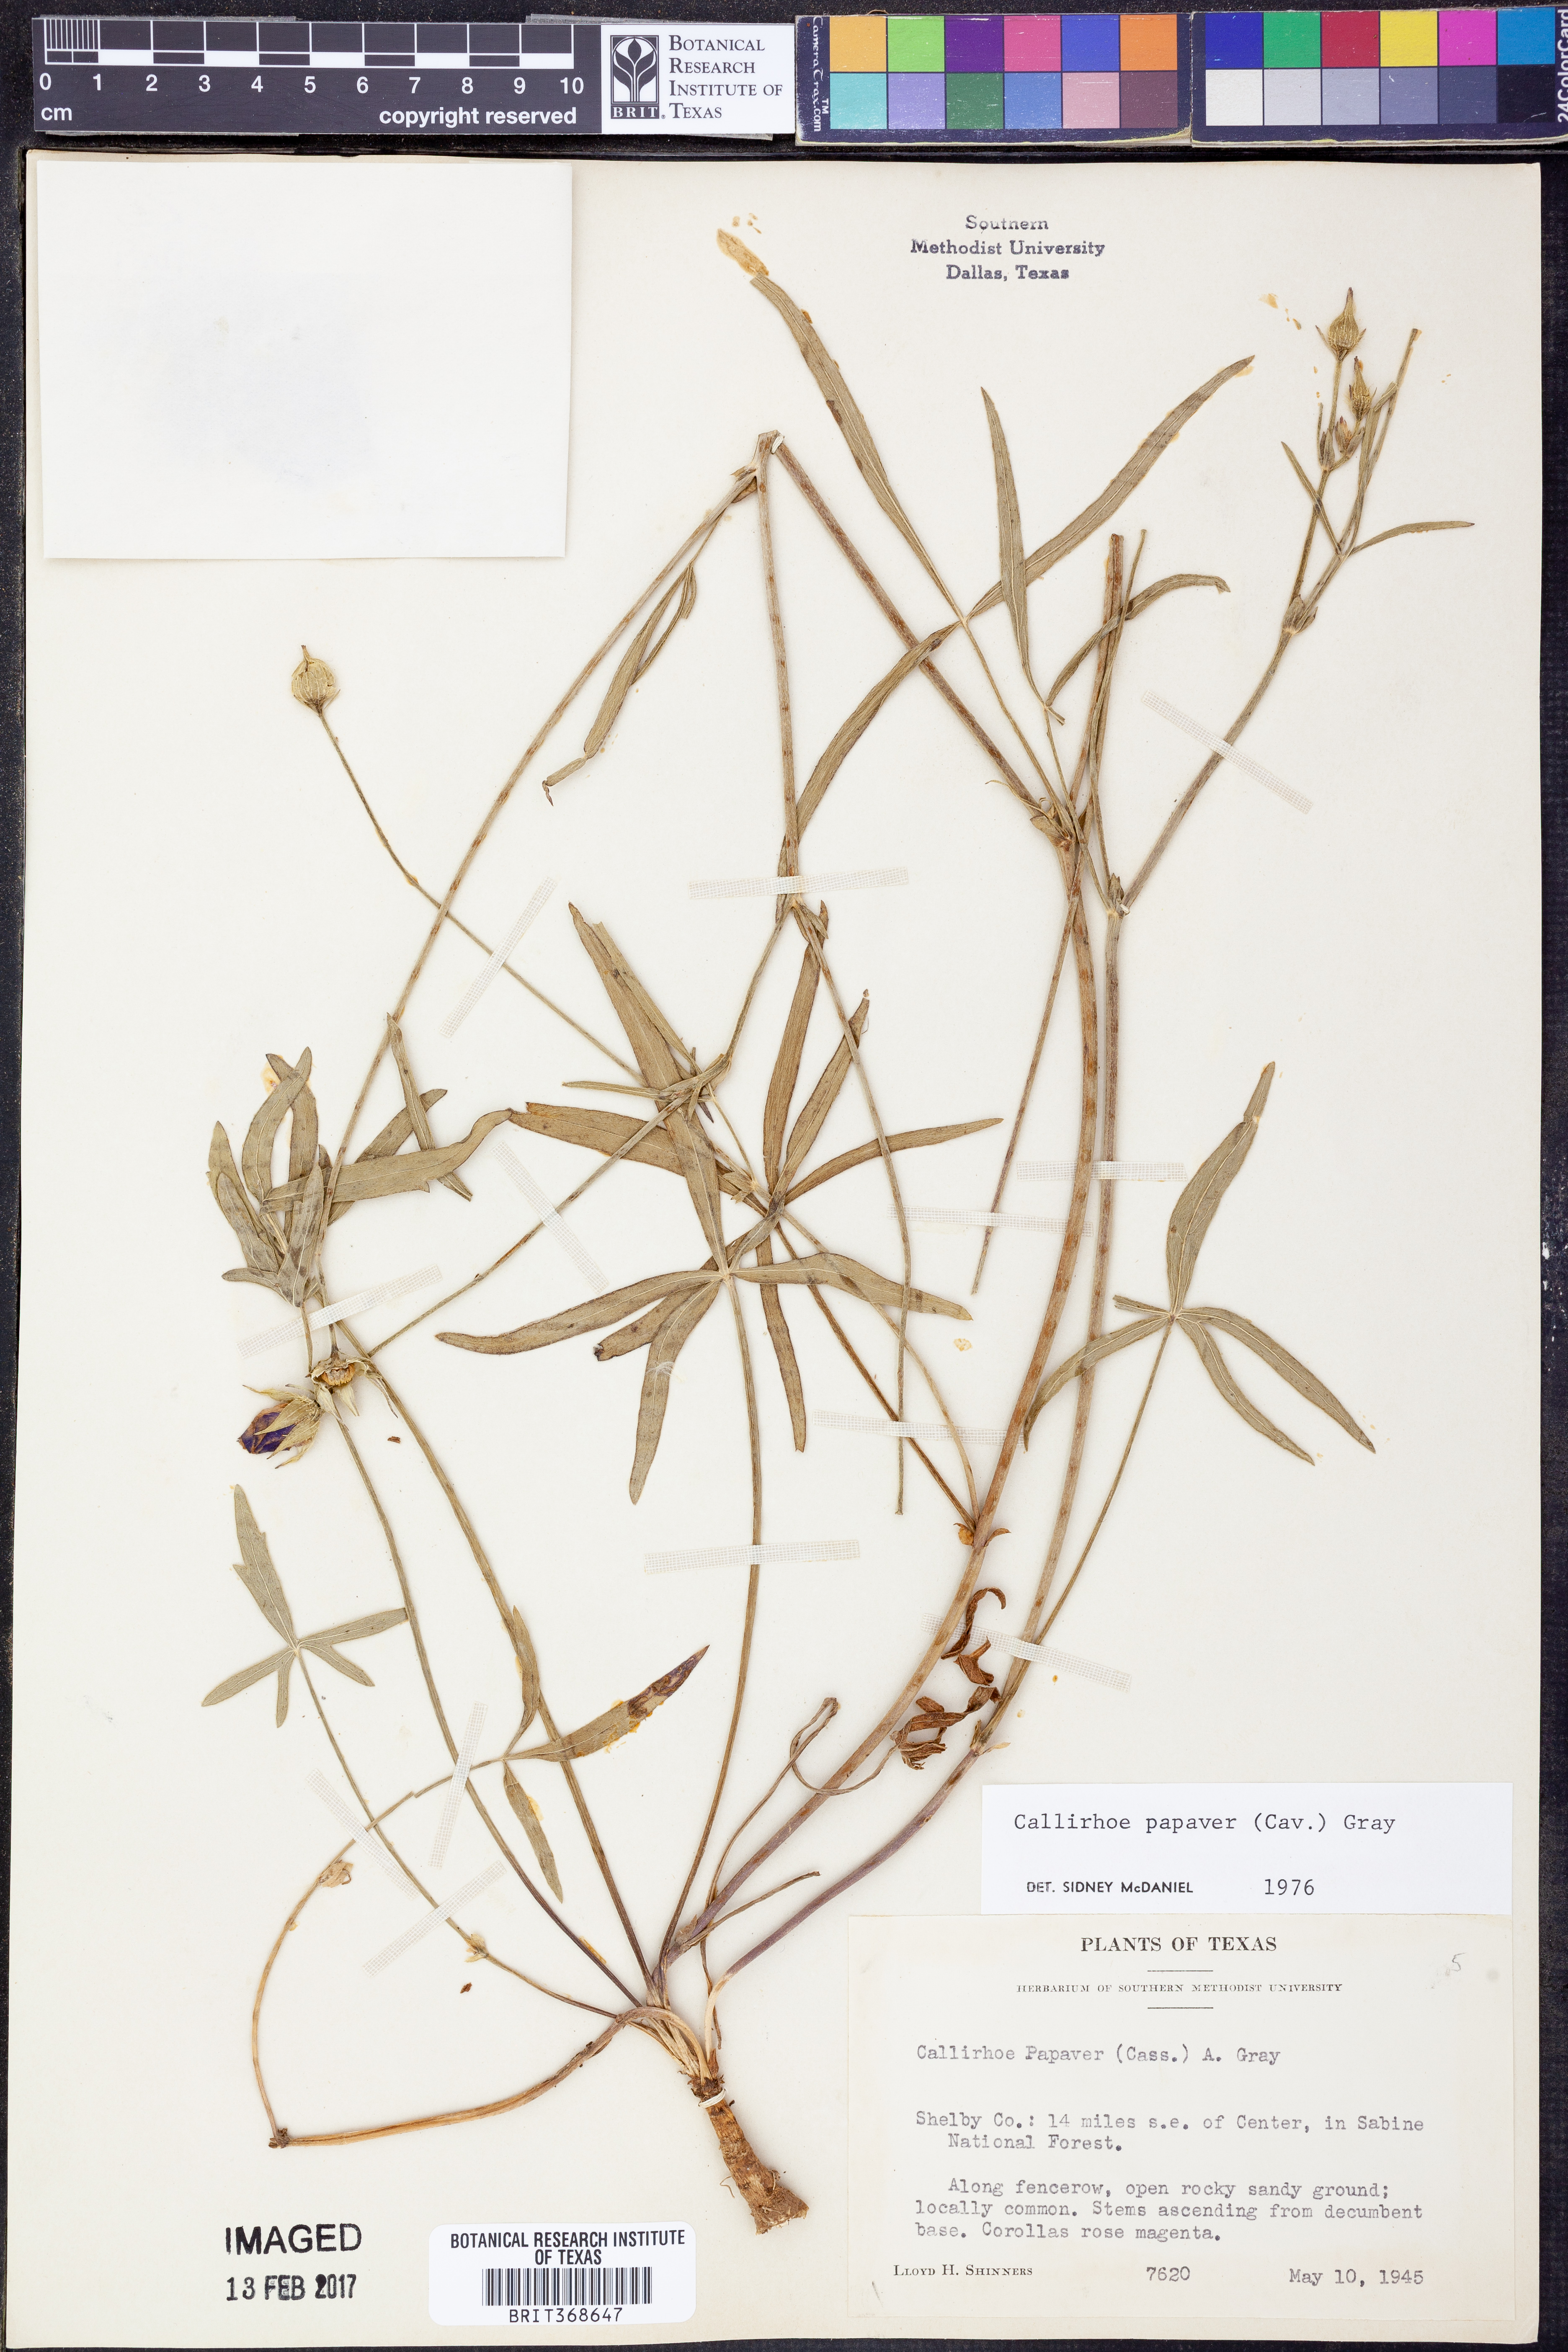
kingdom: Plantae
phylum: Tracheophyta
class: Magnoliopsida
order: Malvales
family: Malvaceae
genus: Callirhoe
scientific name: Callirhoe papaver
